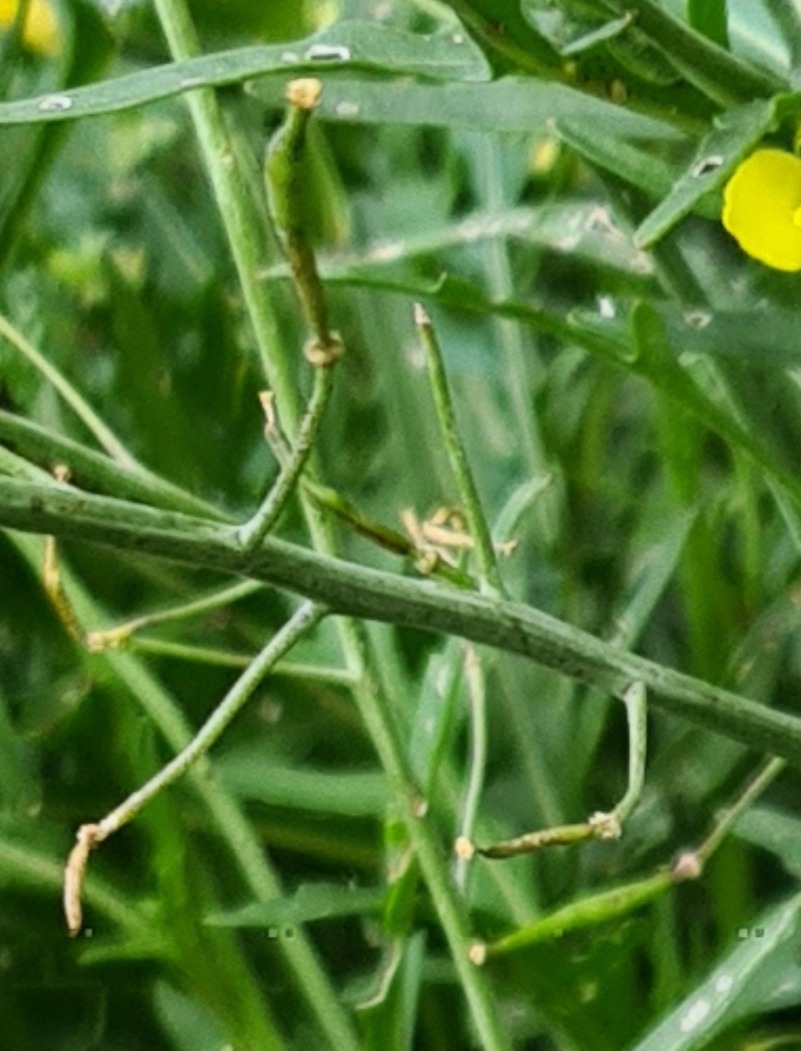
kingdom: Plantae
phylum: Tracheophyta
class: Magnoliopsida
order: Brassicales
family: Brassicaceae
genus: Diplotaxis
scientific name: Diplotaxis tenuifolia
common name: Sandsennep
